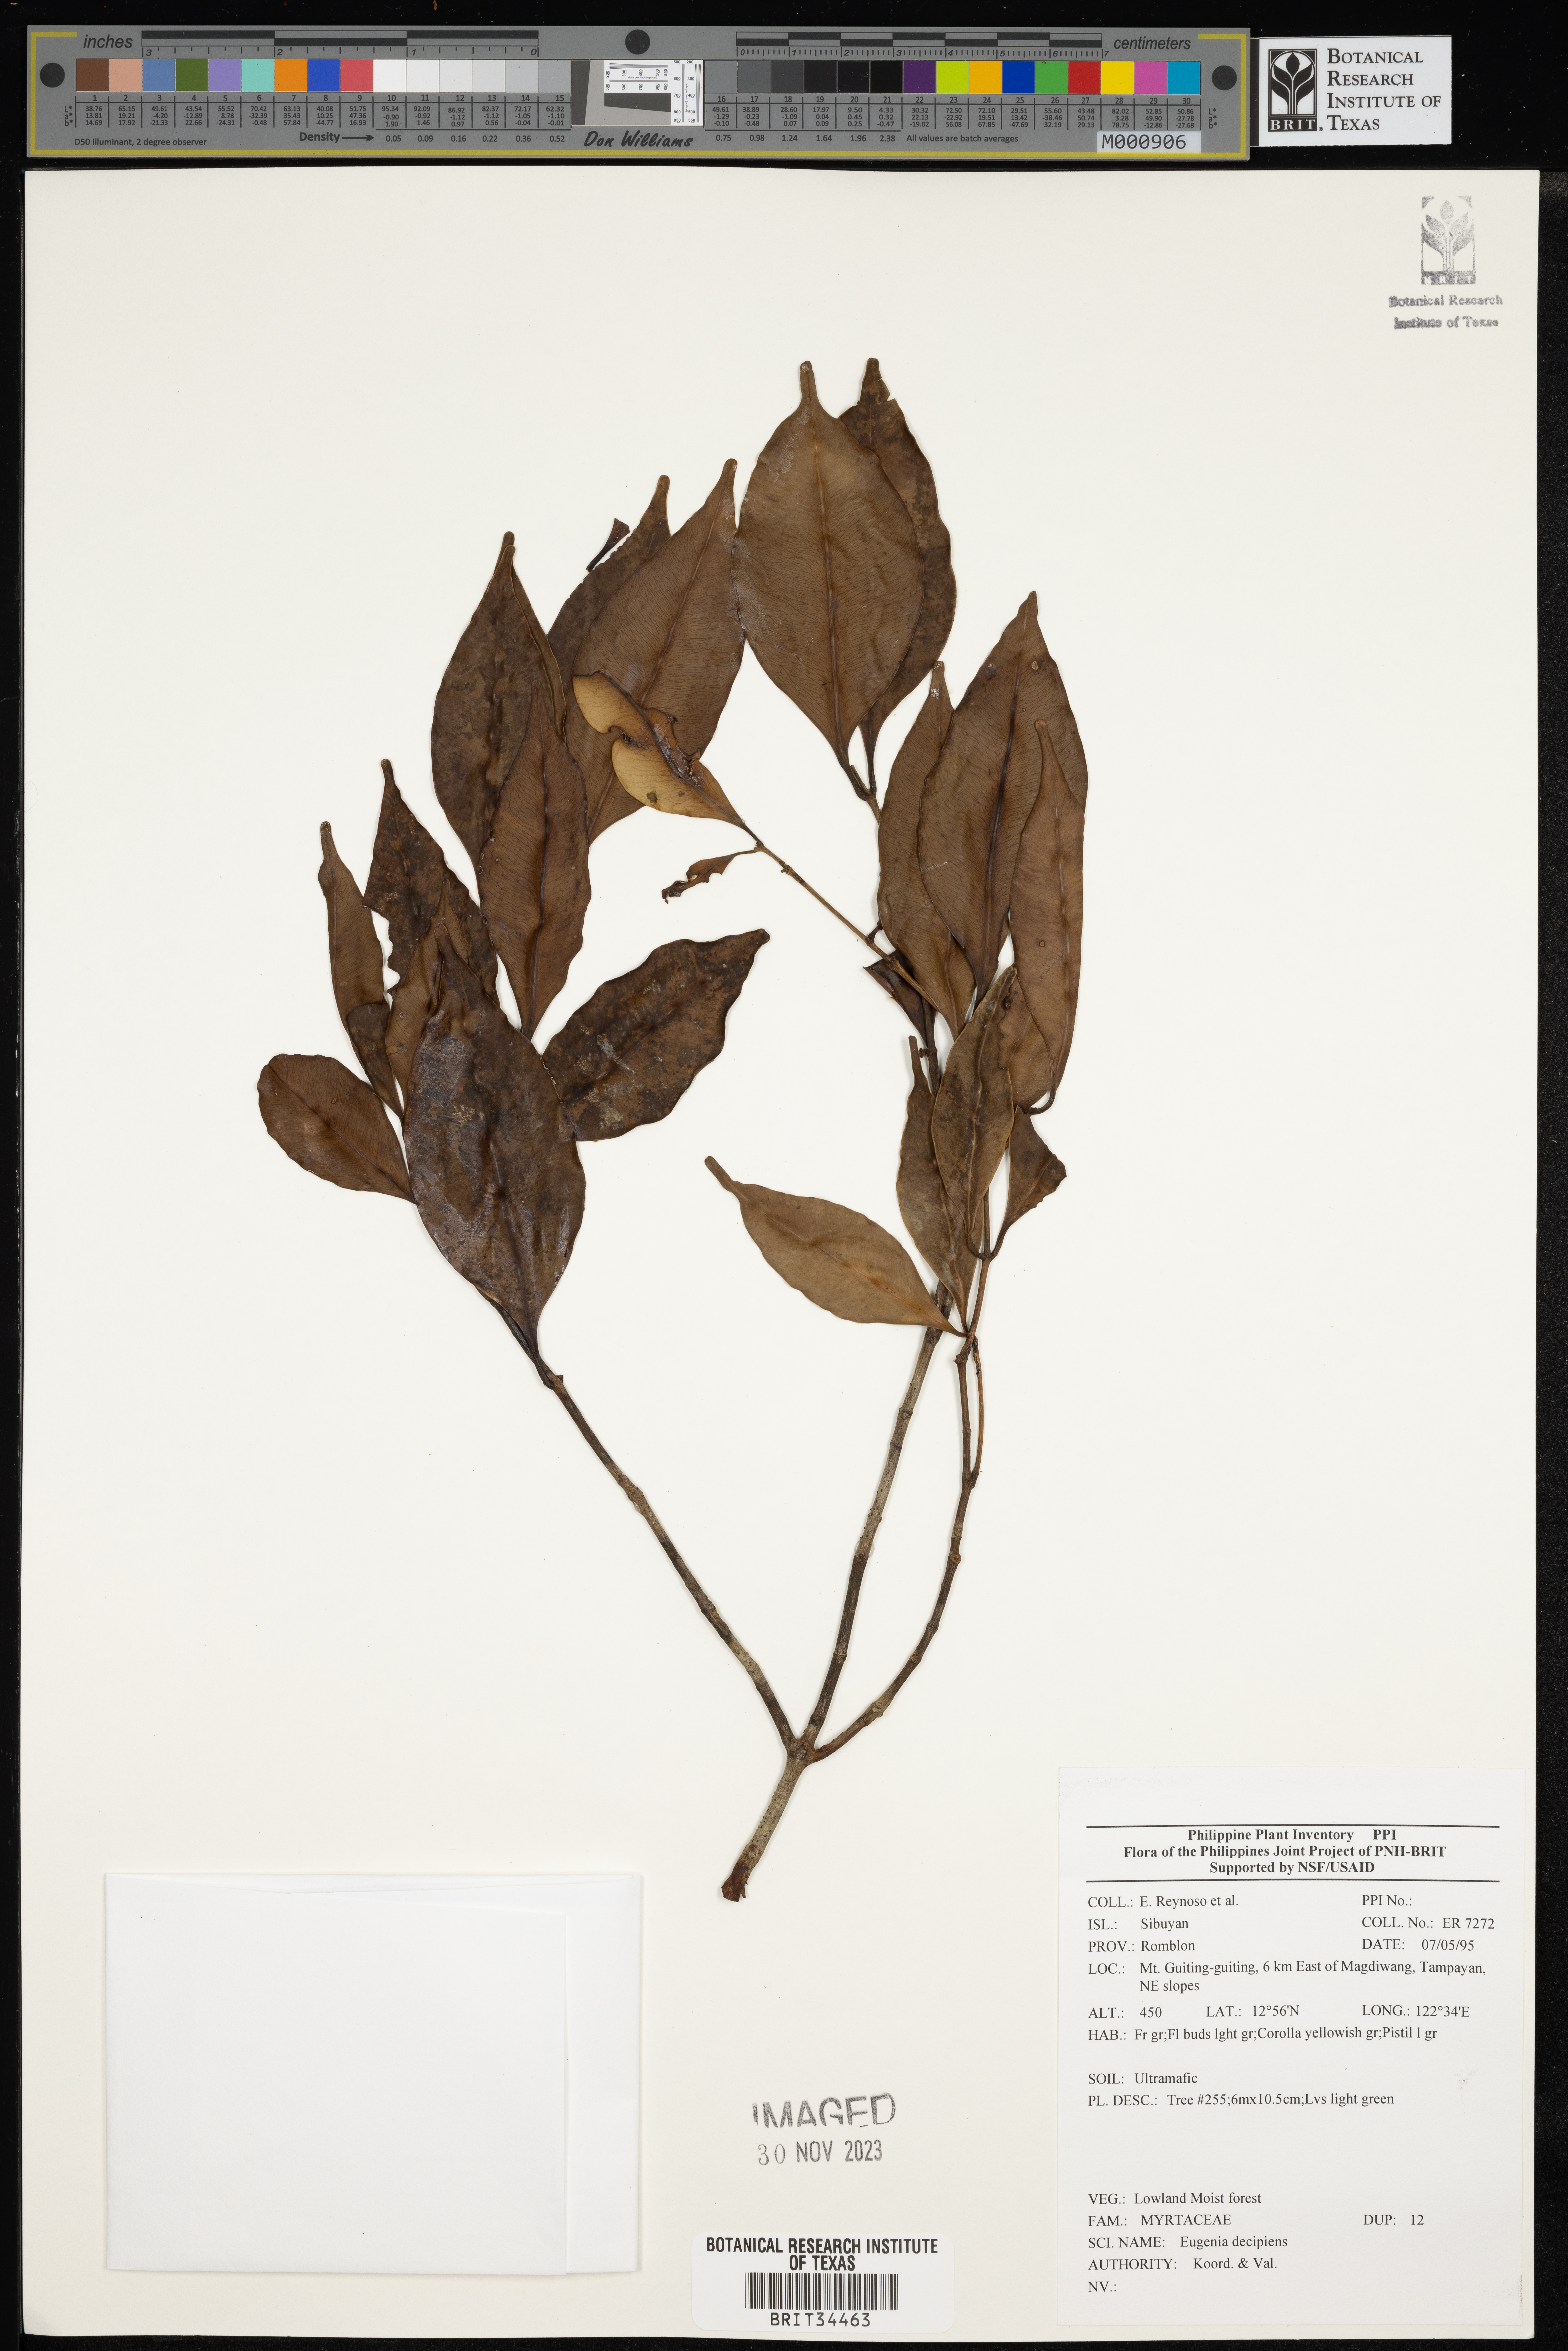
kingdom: Plantae
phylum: Tracheophyta
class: Magnoliopsida
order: Myrtales
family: Myrtaceae
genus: Eugenia
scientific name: Eugenia
